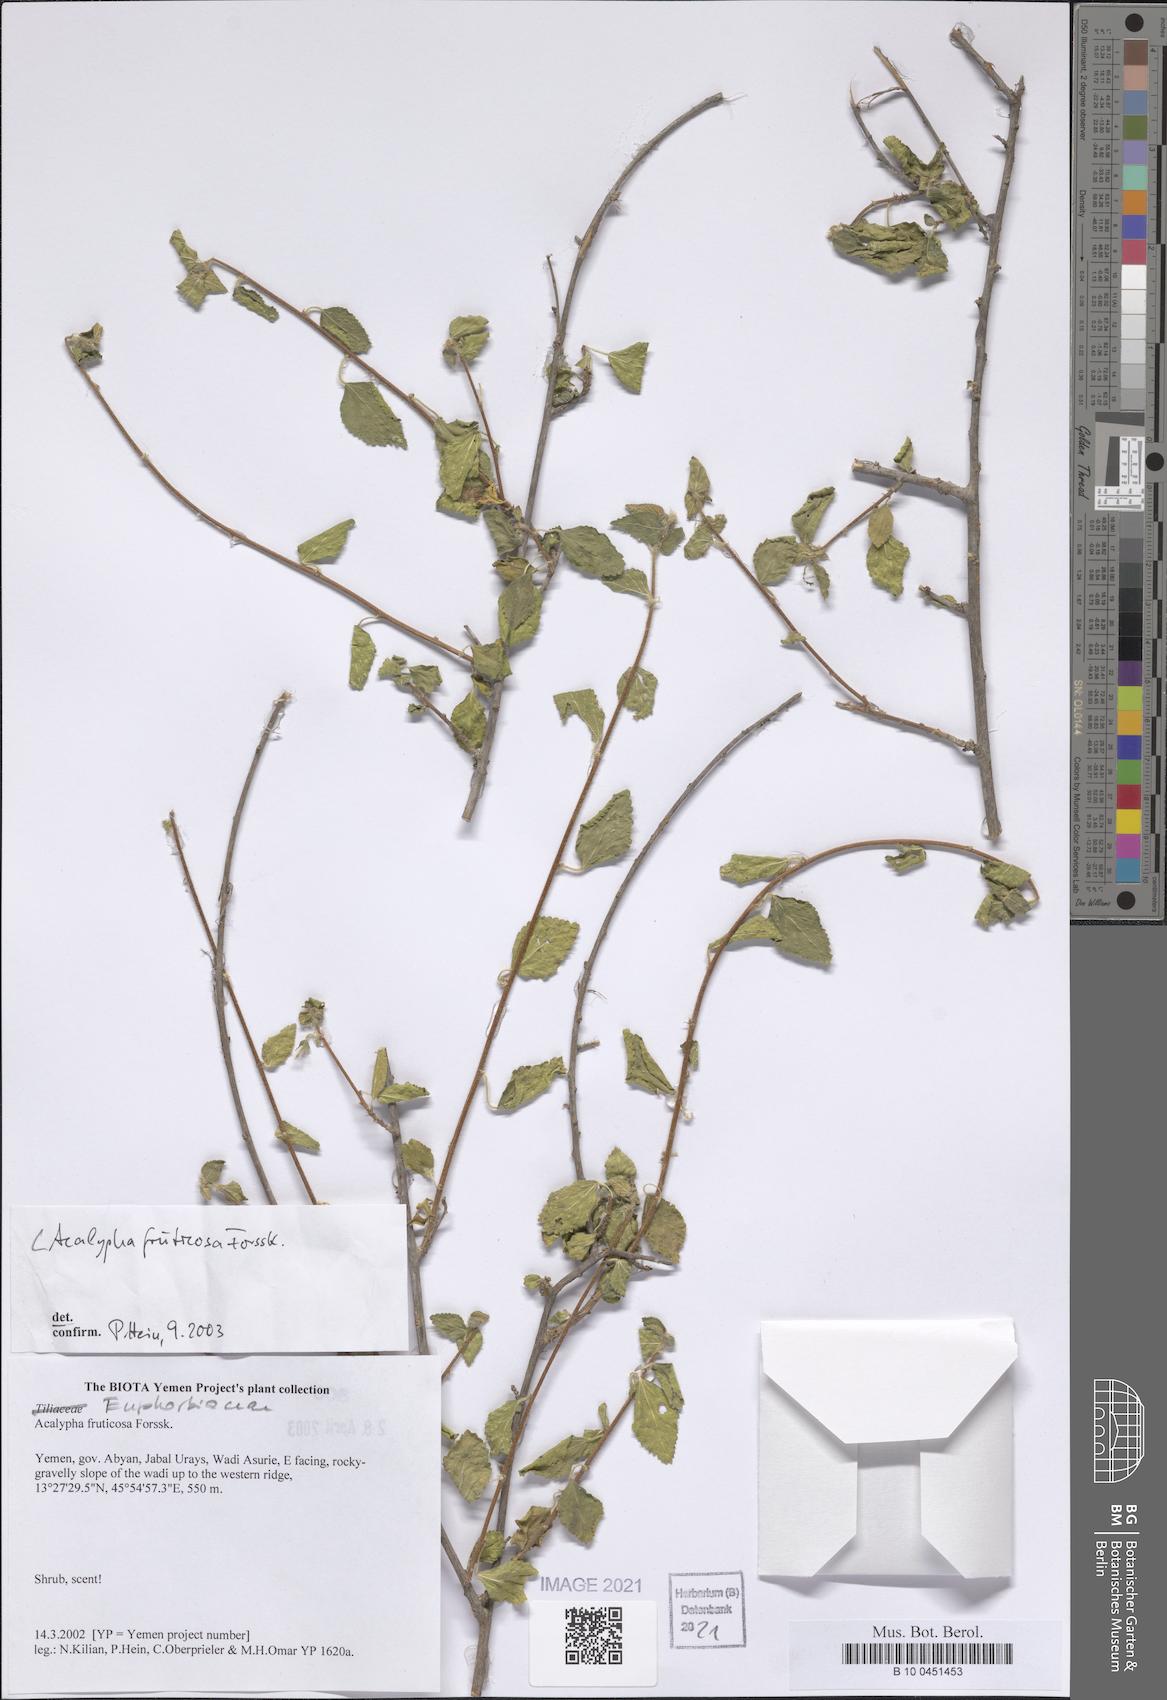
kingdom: Plantae
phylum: Tracheophyta
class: Magnoliopsida
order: Malpighiales
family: Euphorbiaceae
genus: Acalypha
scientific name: Acalypha fruticosa
